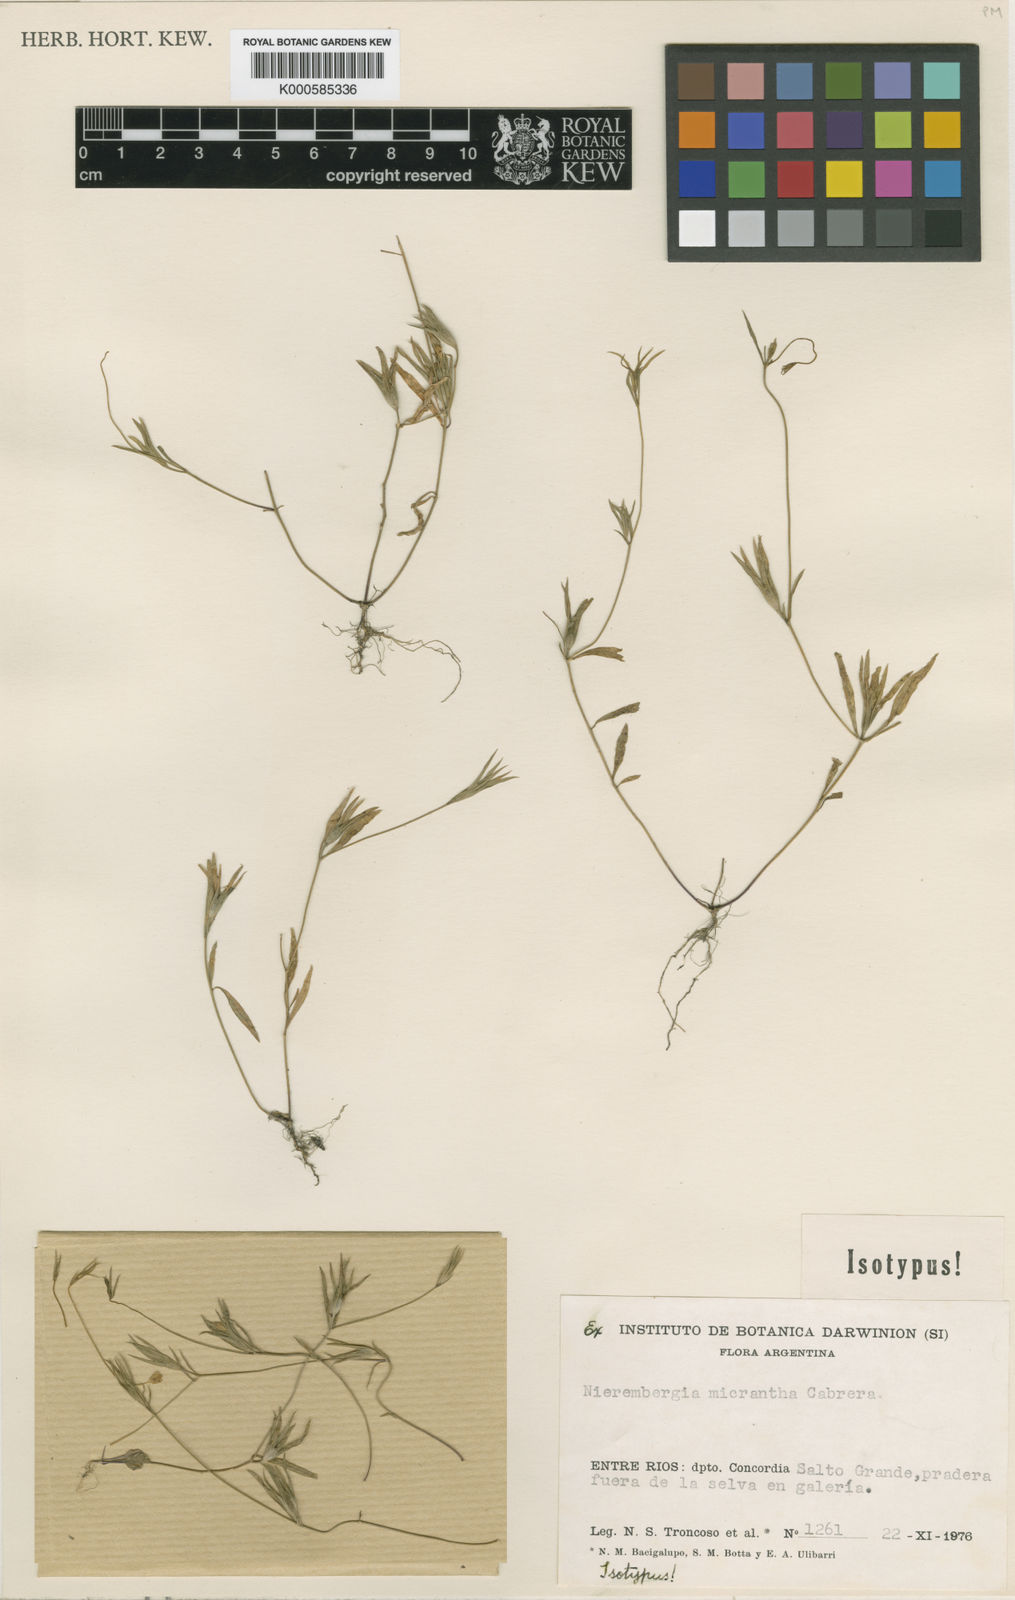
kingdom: Plantae
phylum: Tracheophyta
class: Magnoliopsida
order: Solanales
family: Solanaceae
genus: Nierembergia
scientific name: Nierembergia micrantha
